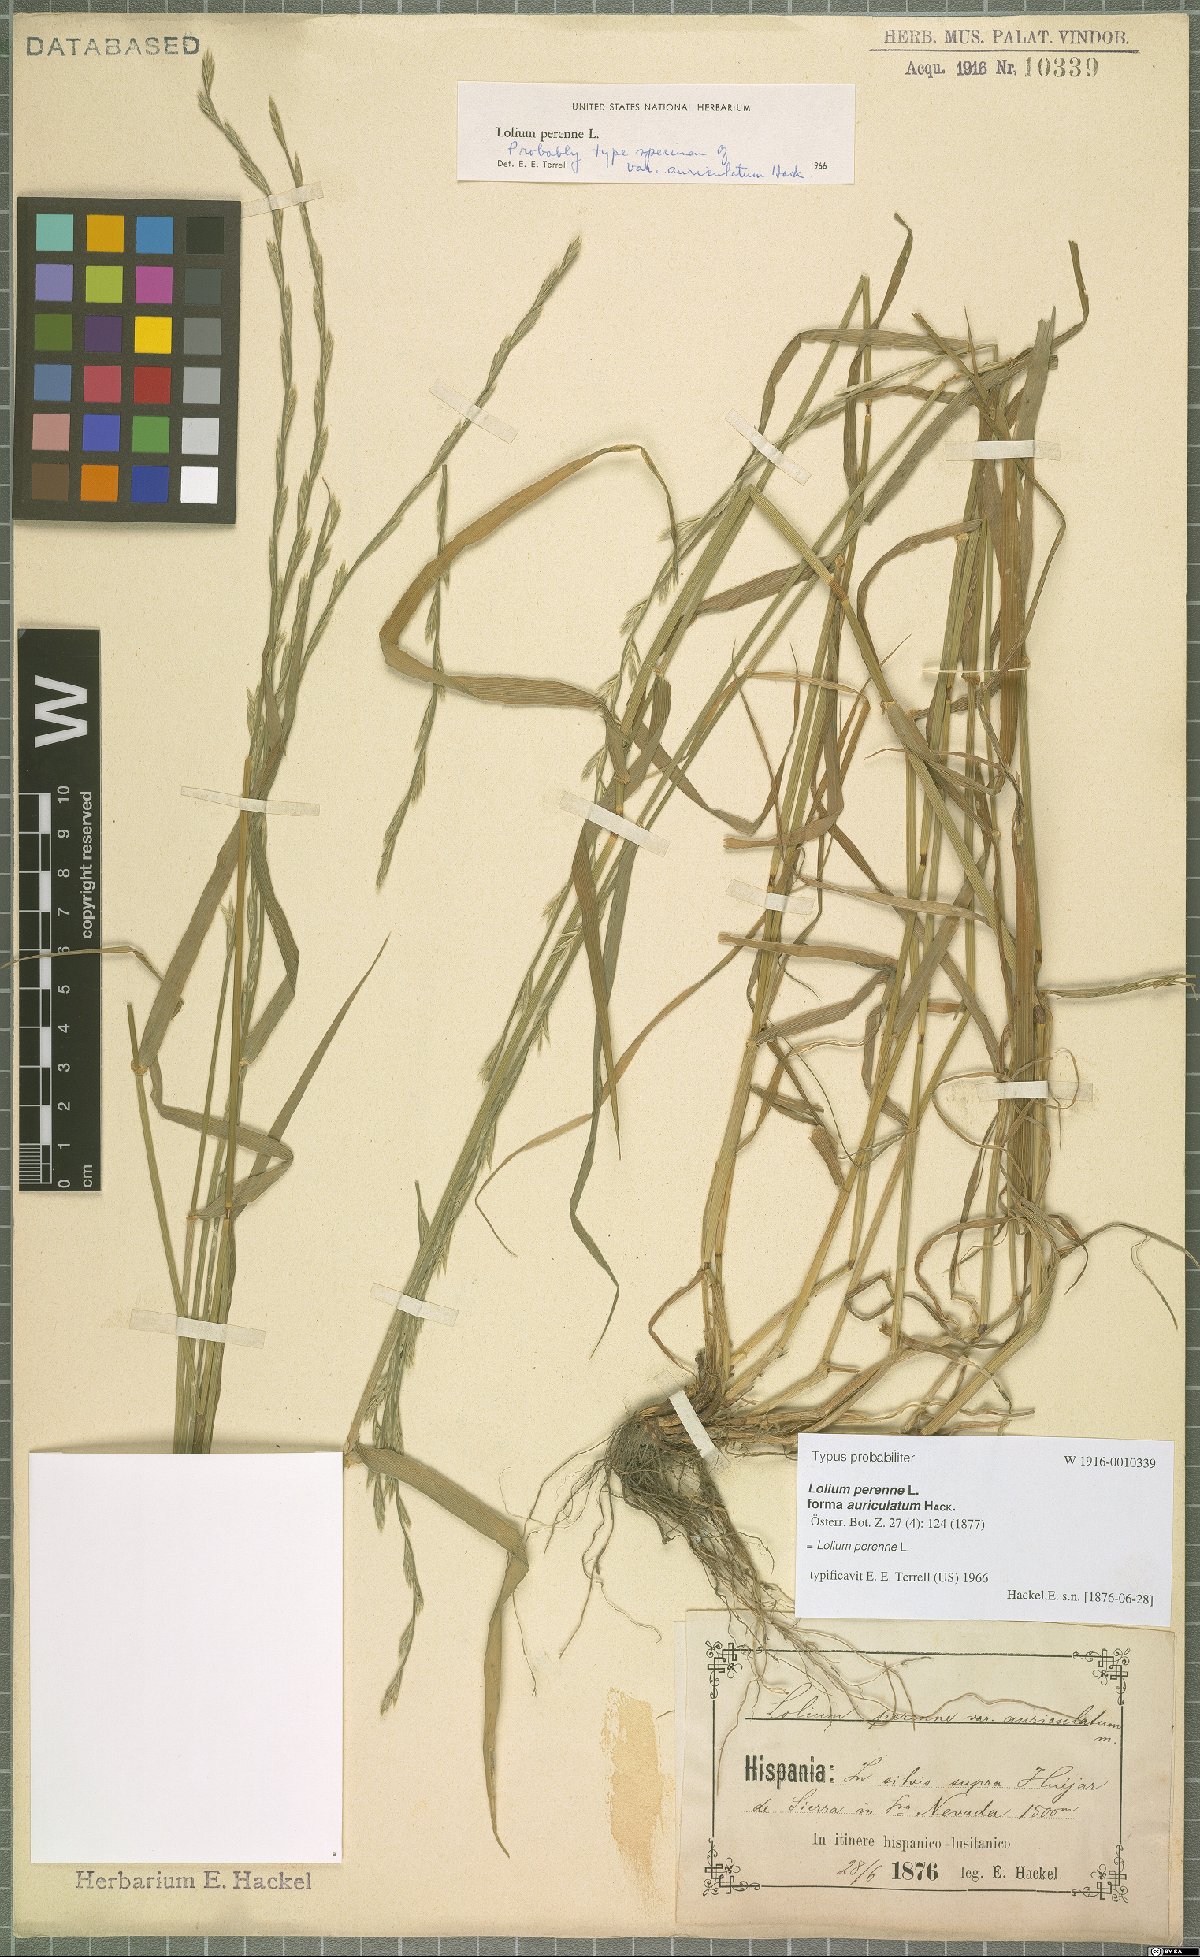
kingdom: Plantae
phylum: Tracheophyta
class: Liliopsida
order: Poales
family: Poaceae
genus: Lolium
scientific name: Lolium perenne
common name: Perennial ryegrass
